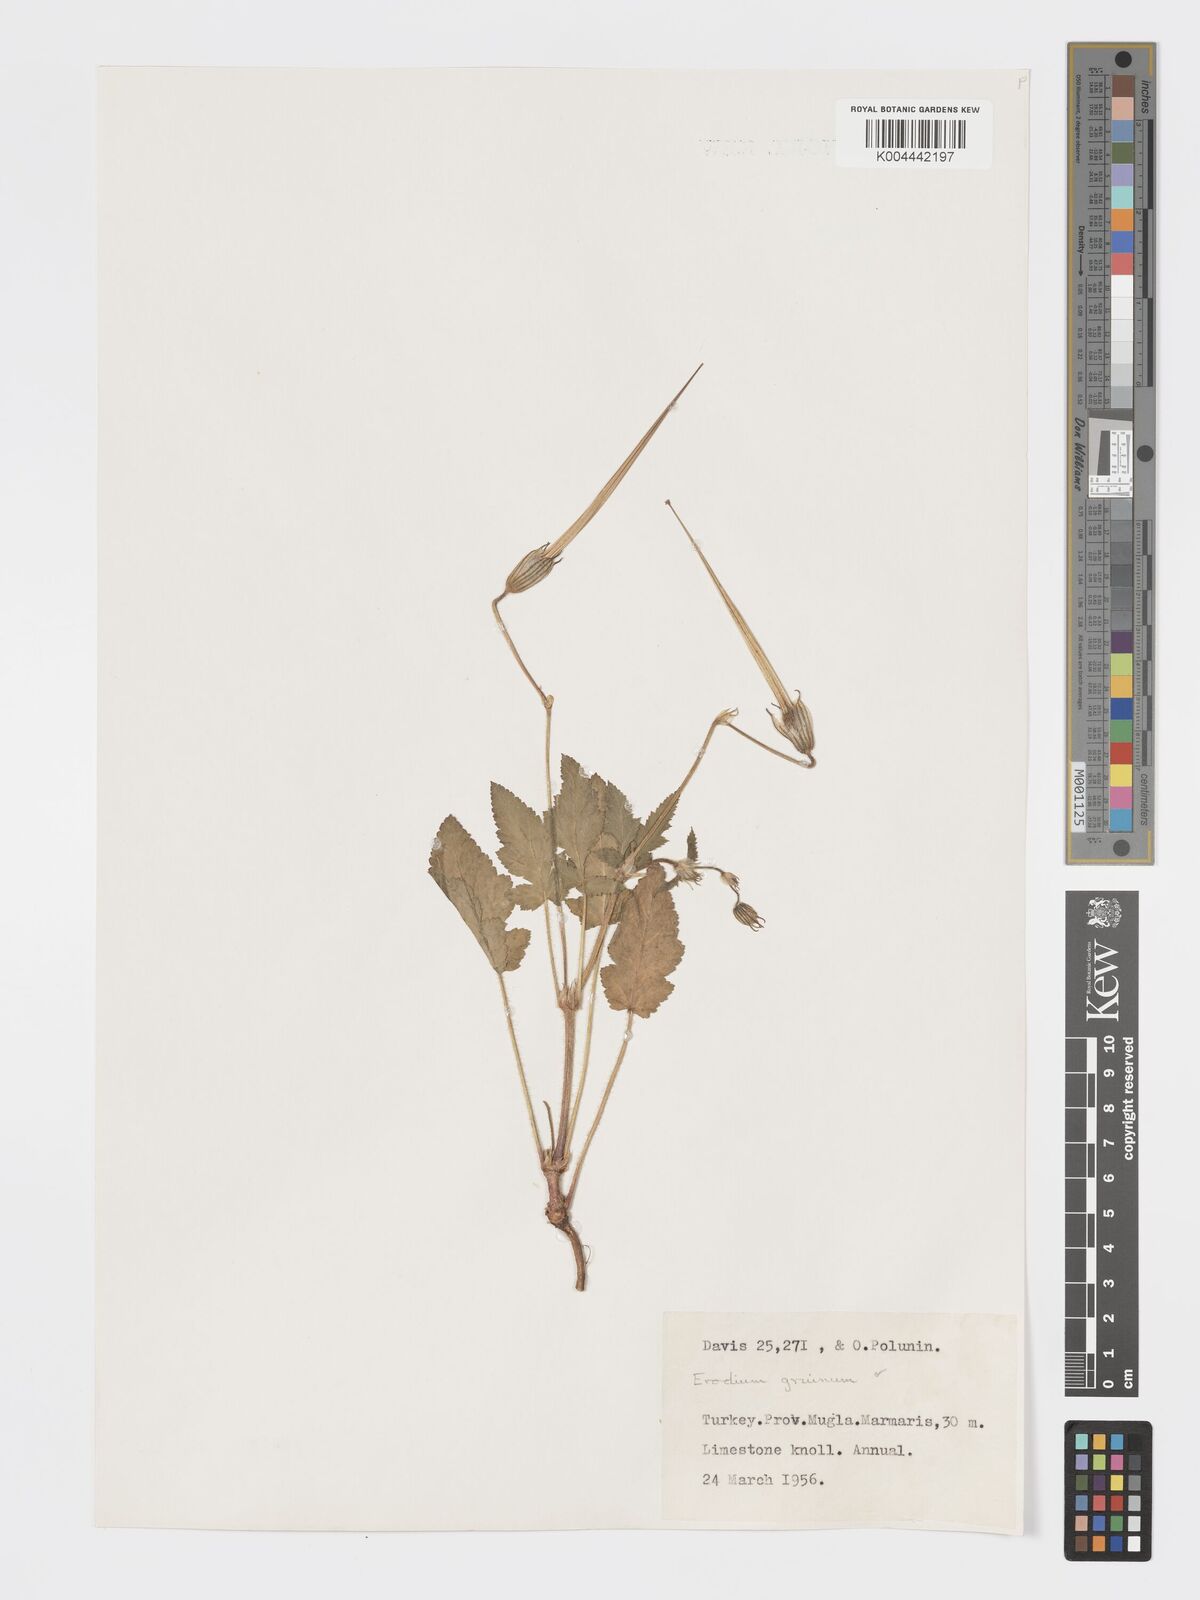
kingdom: Plantae
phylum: Tracheophyta
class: Magnoliopsida
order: Geraniales
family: Geraniaceae
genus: Erodium
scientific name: Erodium gruinum
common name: Iranian stork's bill
